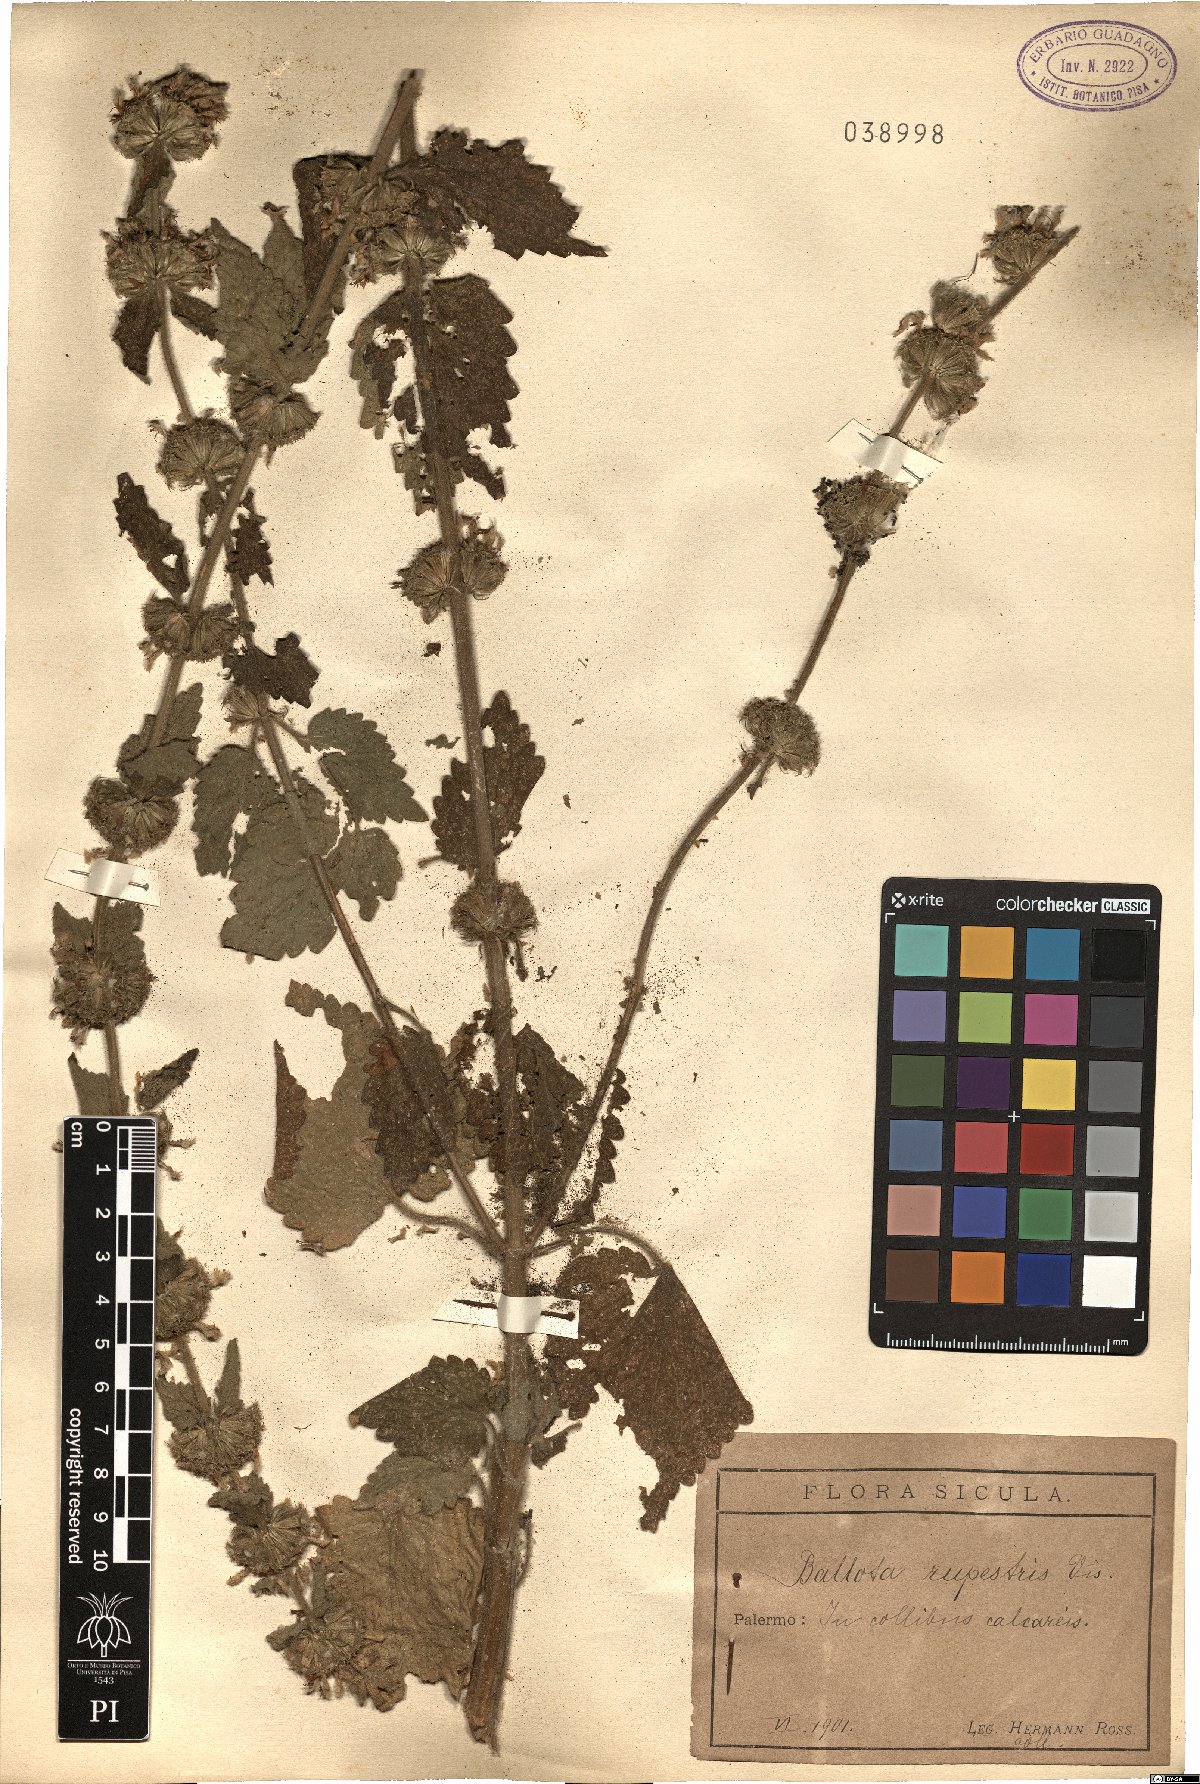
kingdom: Plantae
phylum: Tracheophyta
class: Magnoliopsida
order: Lamiales
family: Lamiaceae
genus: Pseudodictamnus
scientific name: Pseudodictamnus hispanicus
